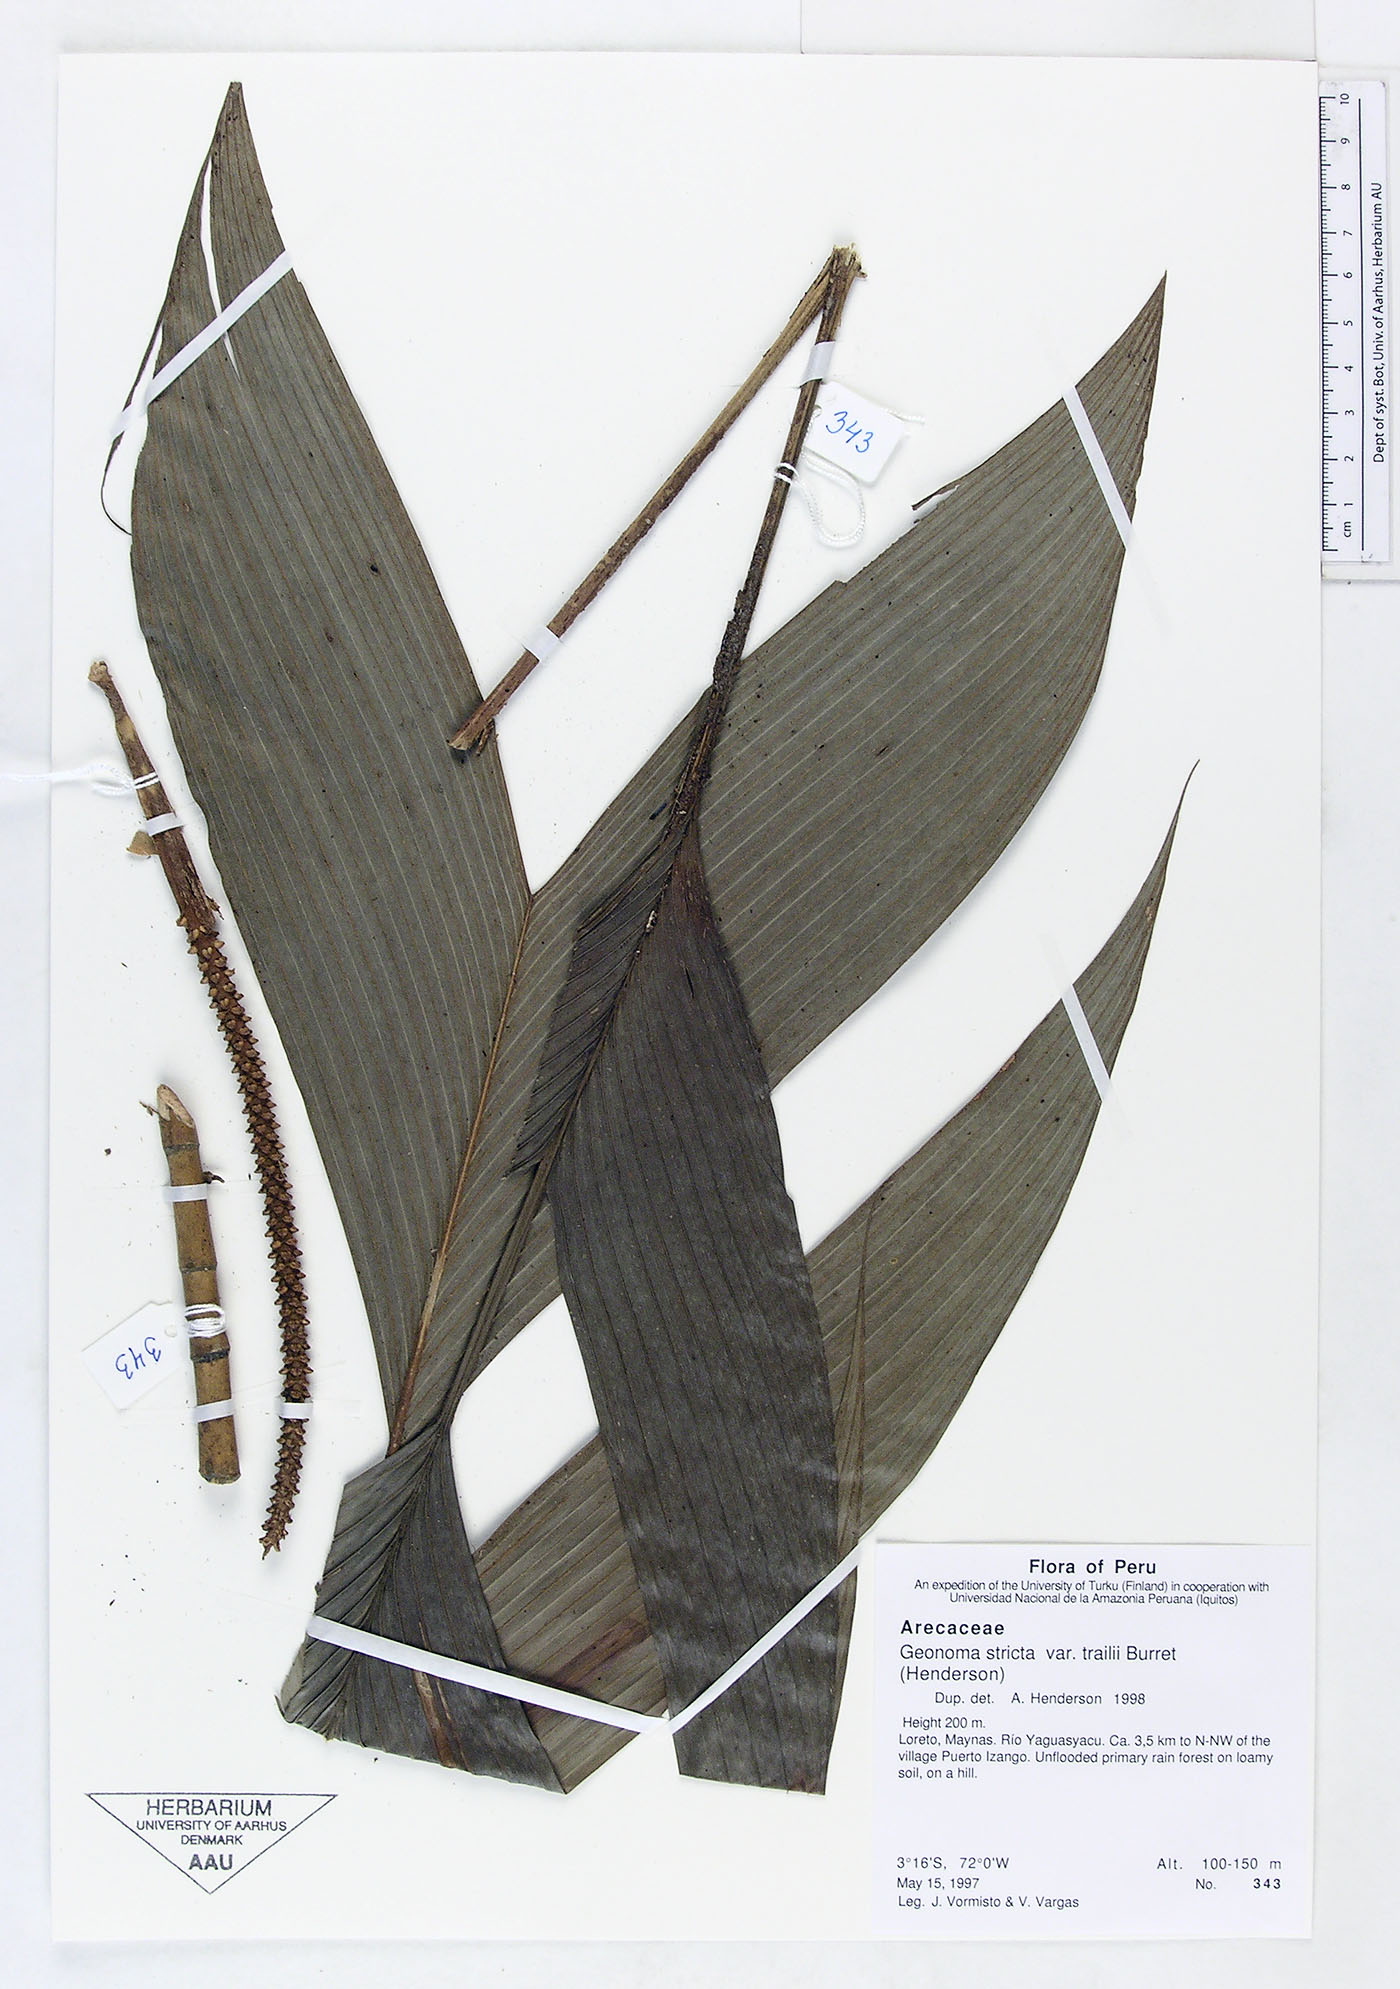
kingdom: Plantae
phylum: Tracheophyta
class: Liliopsida
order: Arecales
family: Arecaceae
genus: Geonoma
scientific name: Geonoma stricta
